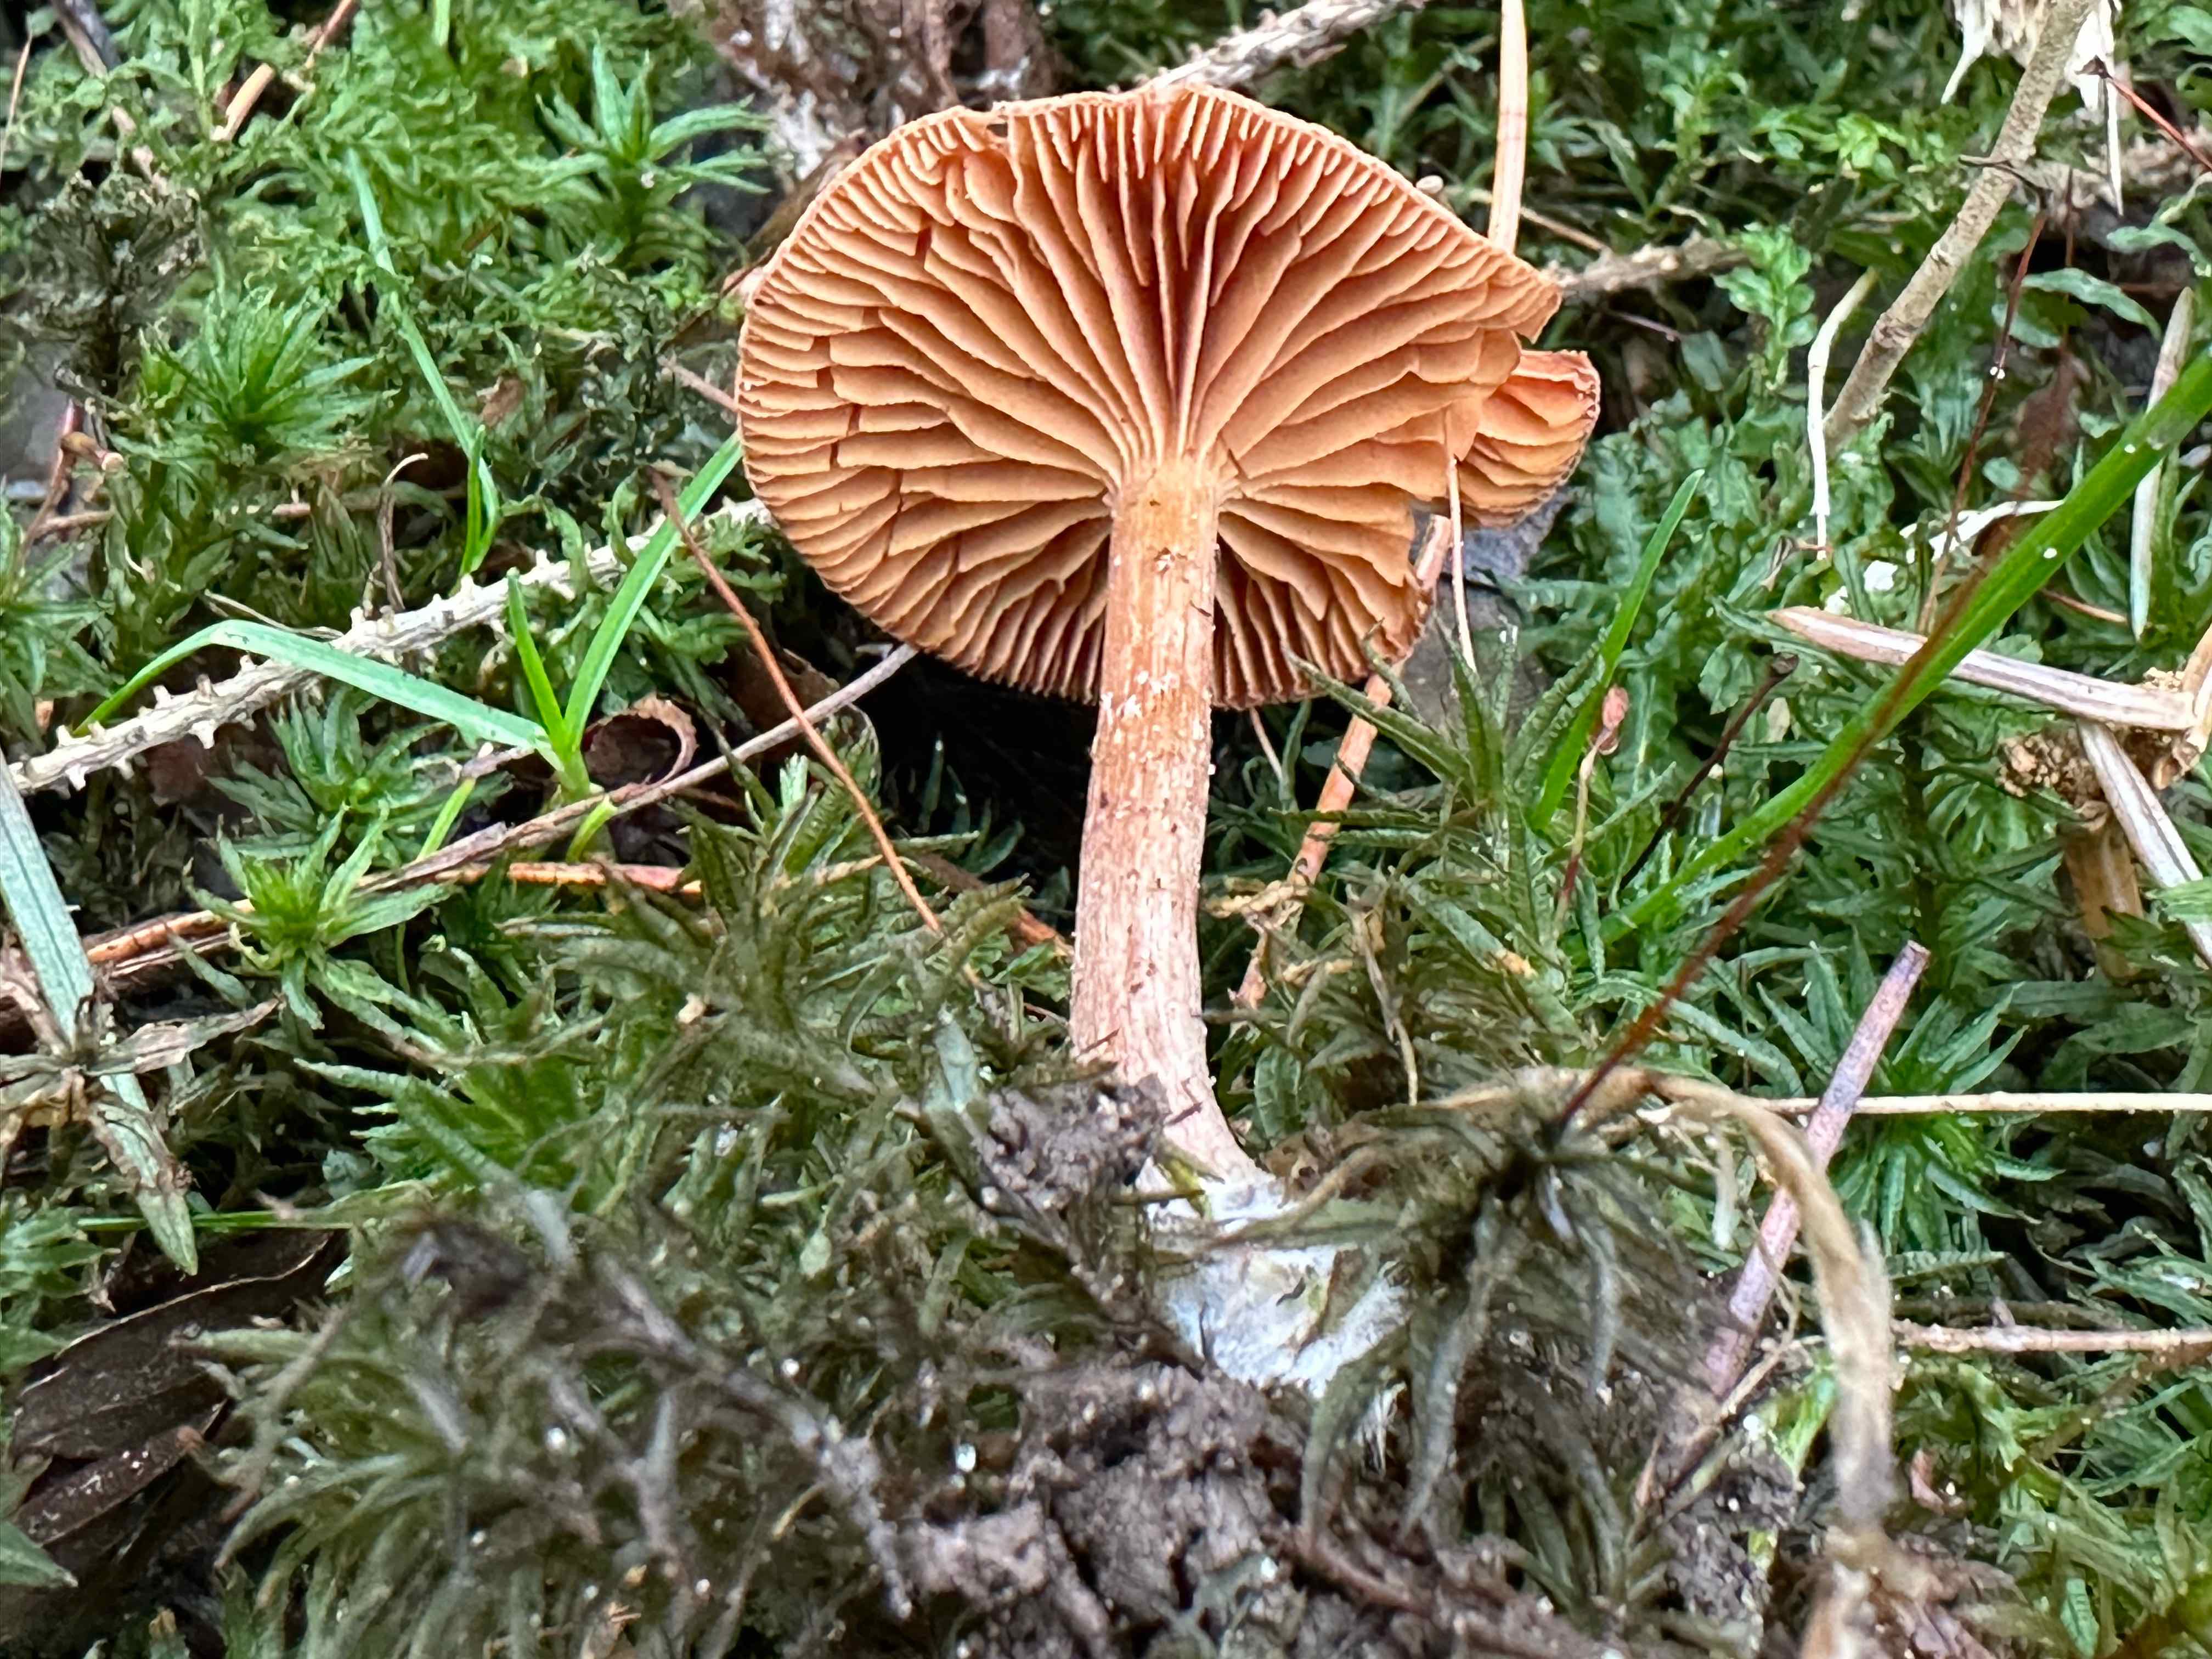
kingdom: Fungi
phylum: Basidiomycota
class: Agaricomycetes
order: Agaricales
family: Tubariaceae
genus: Tubaria
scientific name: Tubaria furfuracea
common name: kliddet fnughat
